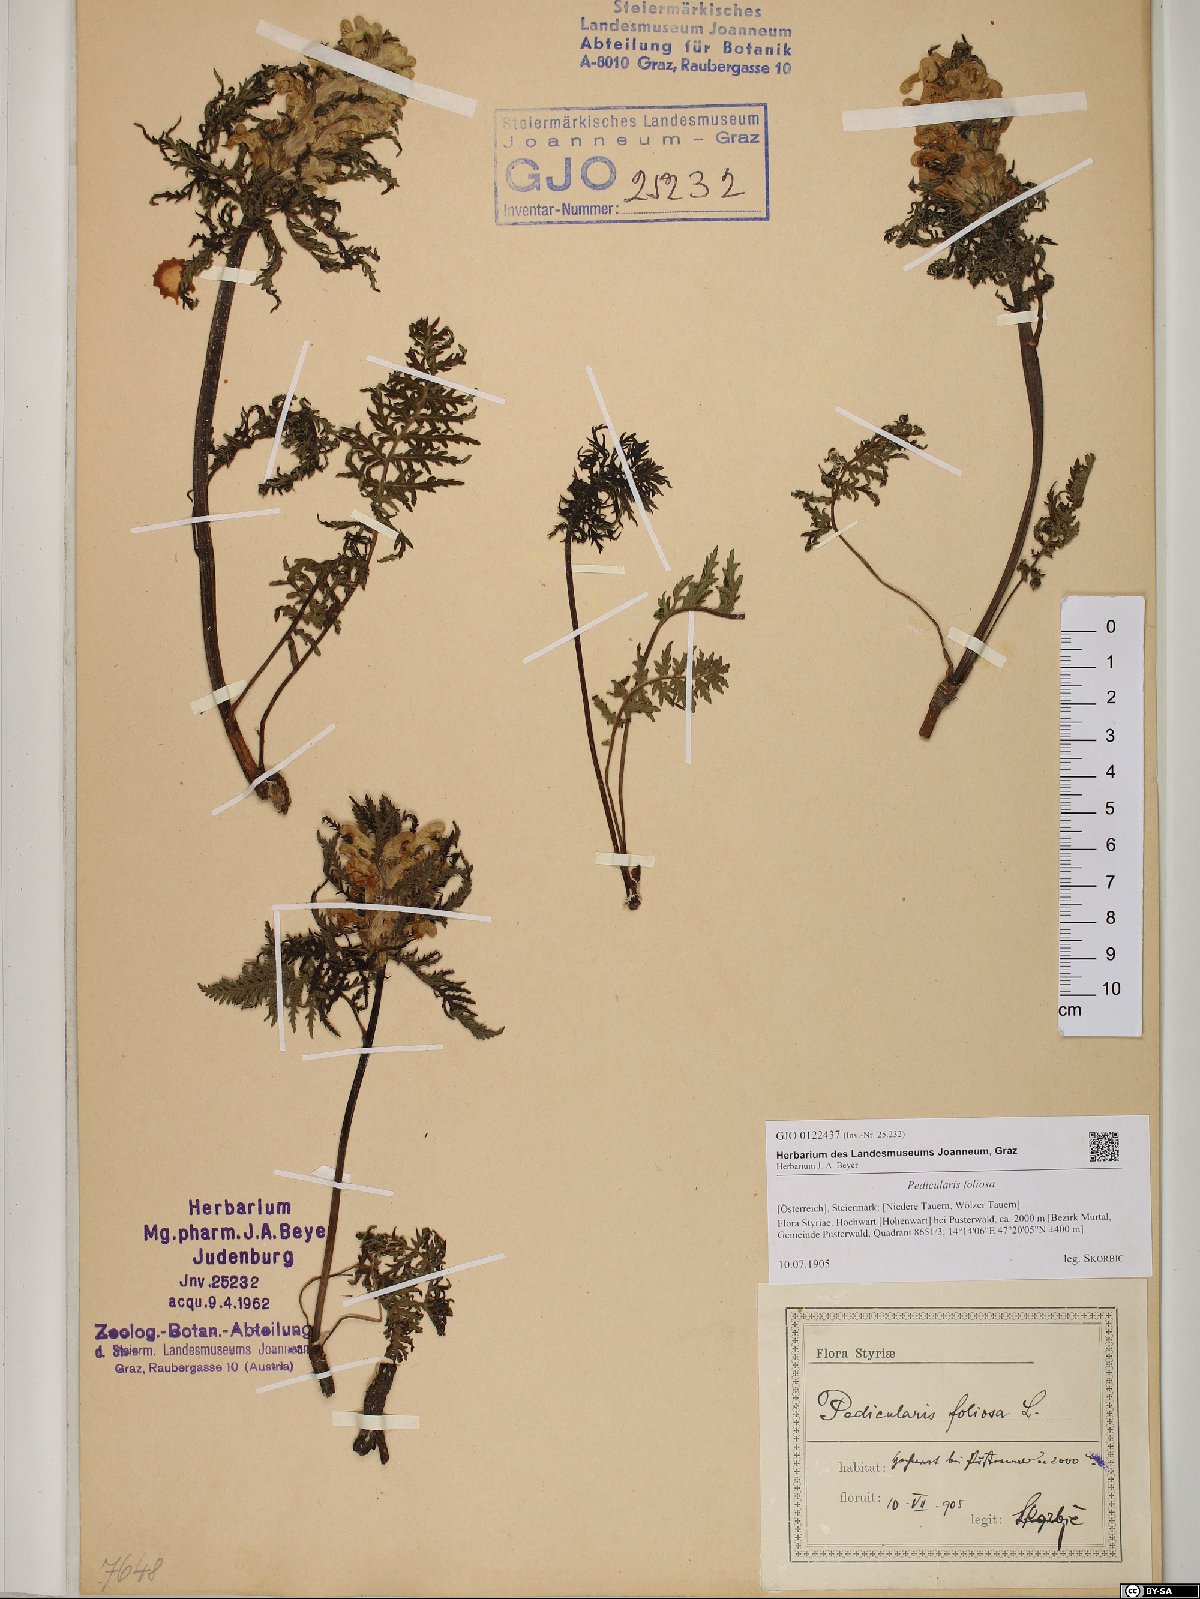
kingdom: Plantae
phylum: Tracheophyta
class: Magnoliopsida
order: Lamiales
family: Orobanchaceae
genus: Pedicularis
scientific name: Pedicularis foliosa
